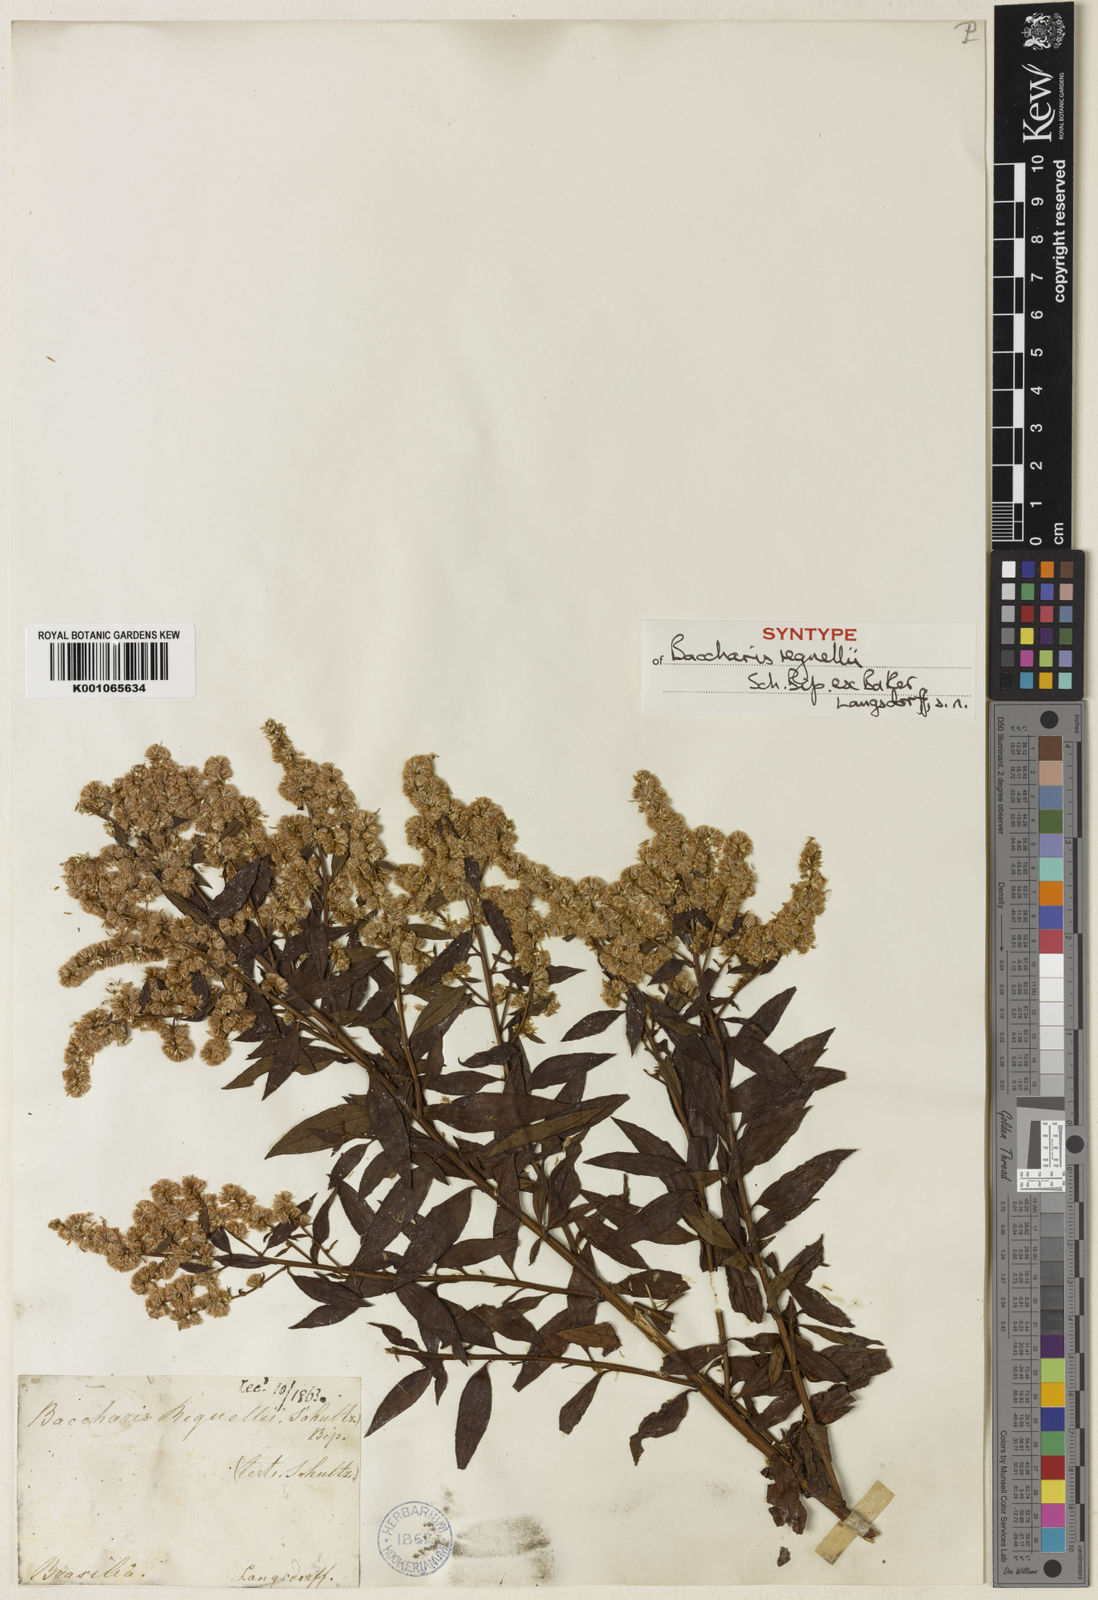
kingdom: Plantae
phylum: Tracheophyta
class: Magnoliopsida
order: Asterales
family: Asteraceae
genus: Baccharis
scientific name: Baccharis
